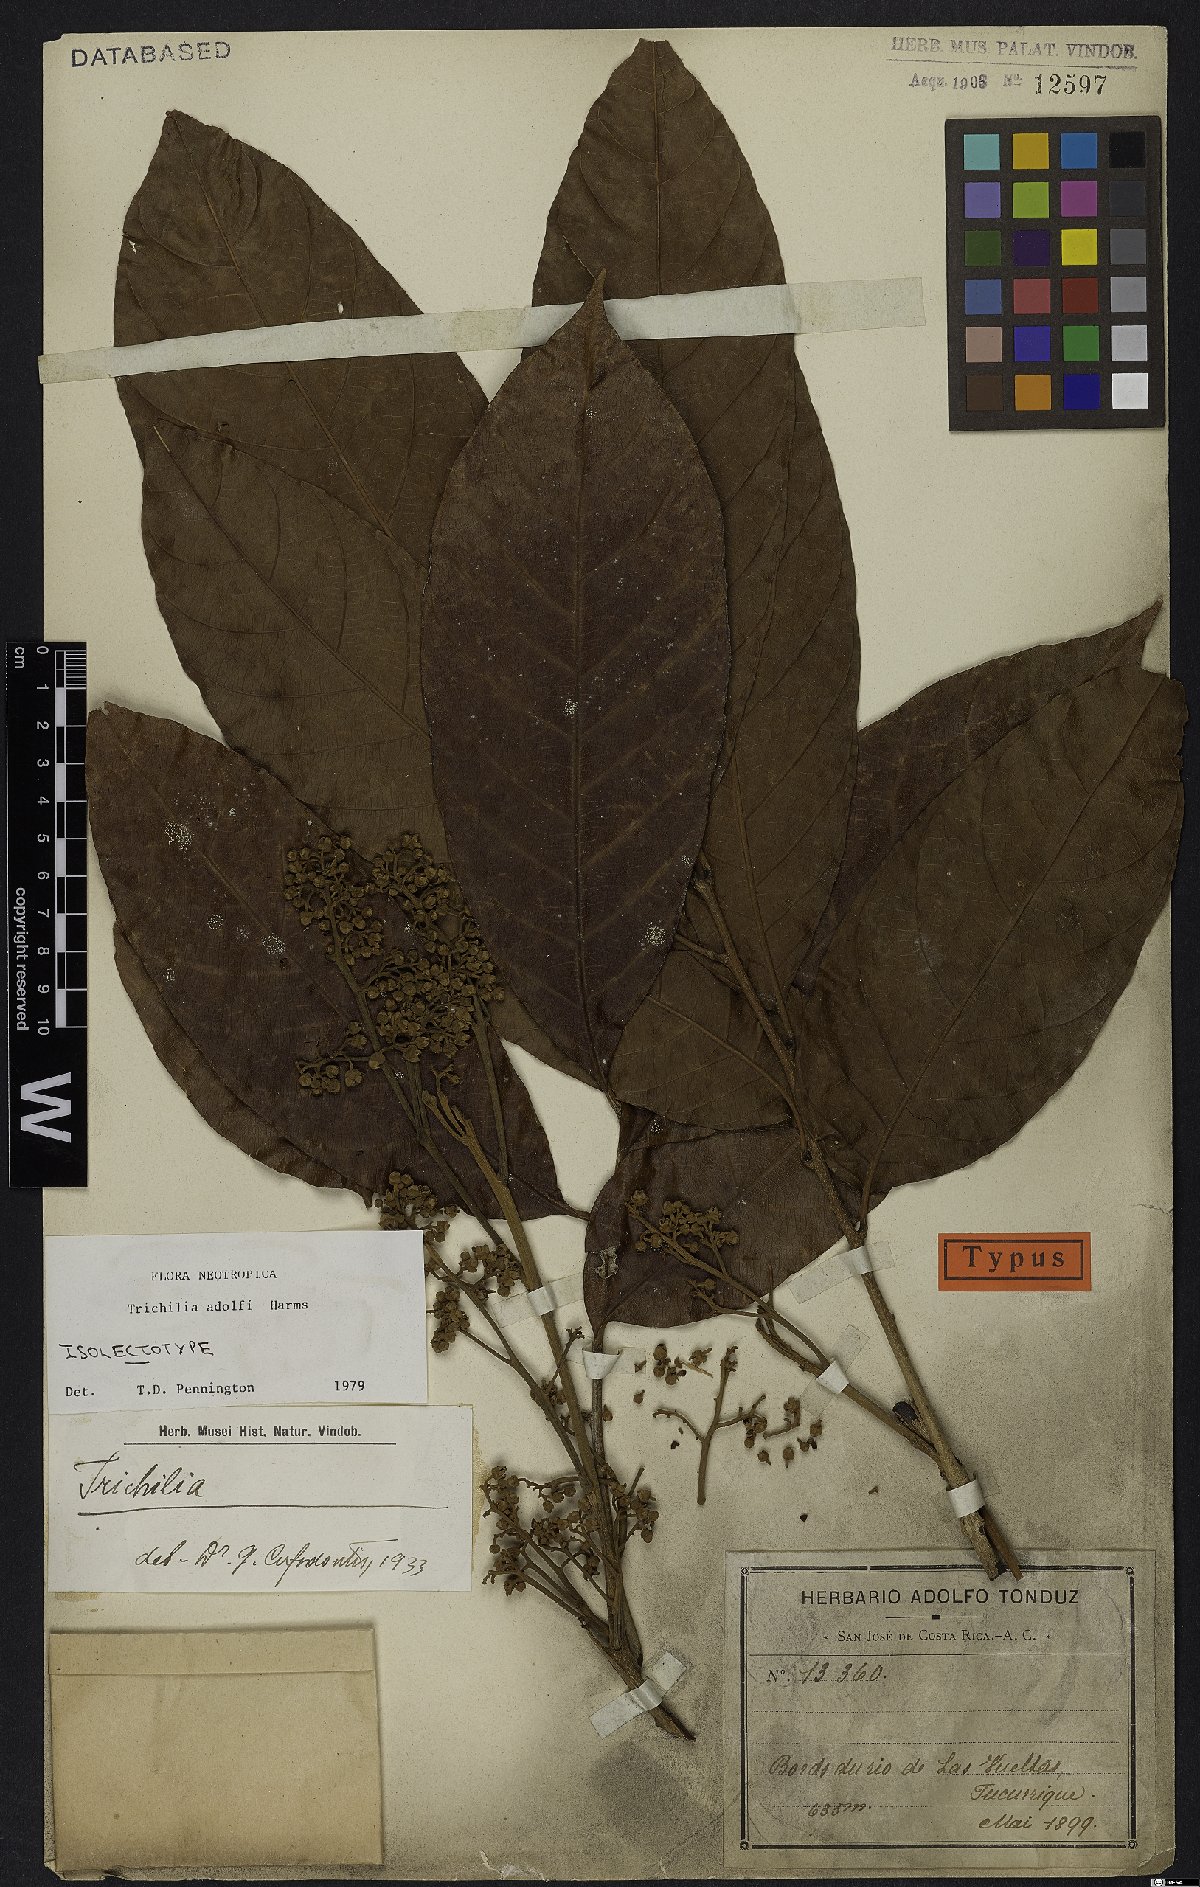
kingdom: Plantae
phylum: Tracheophyta
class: Magnoliopsida
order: Sapindales
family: Meliaceae
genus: Trichilia
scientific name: Trichilia adolfi
